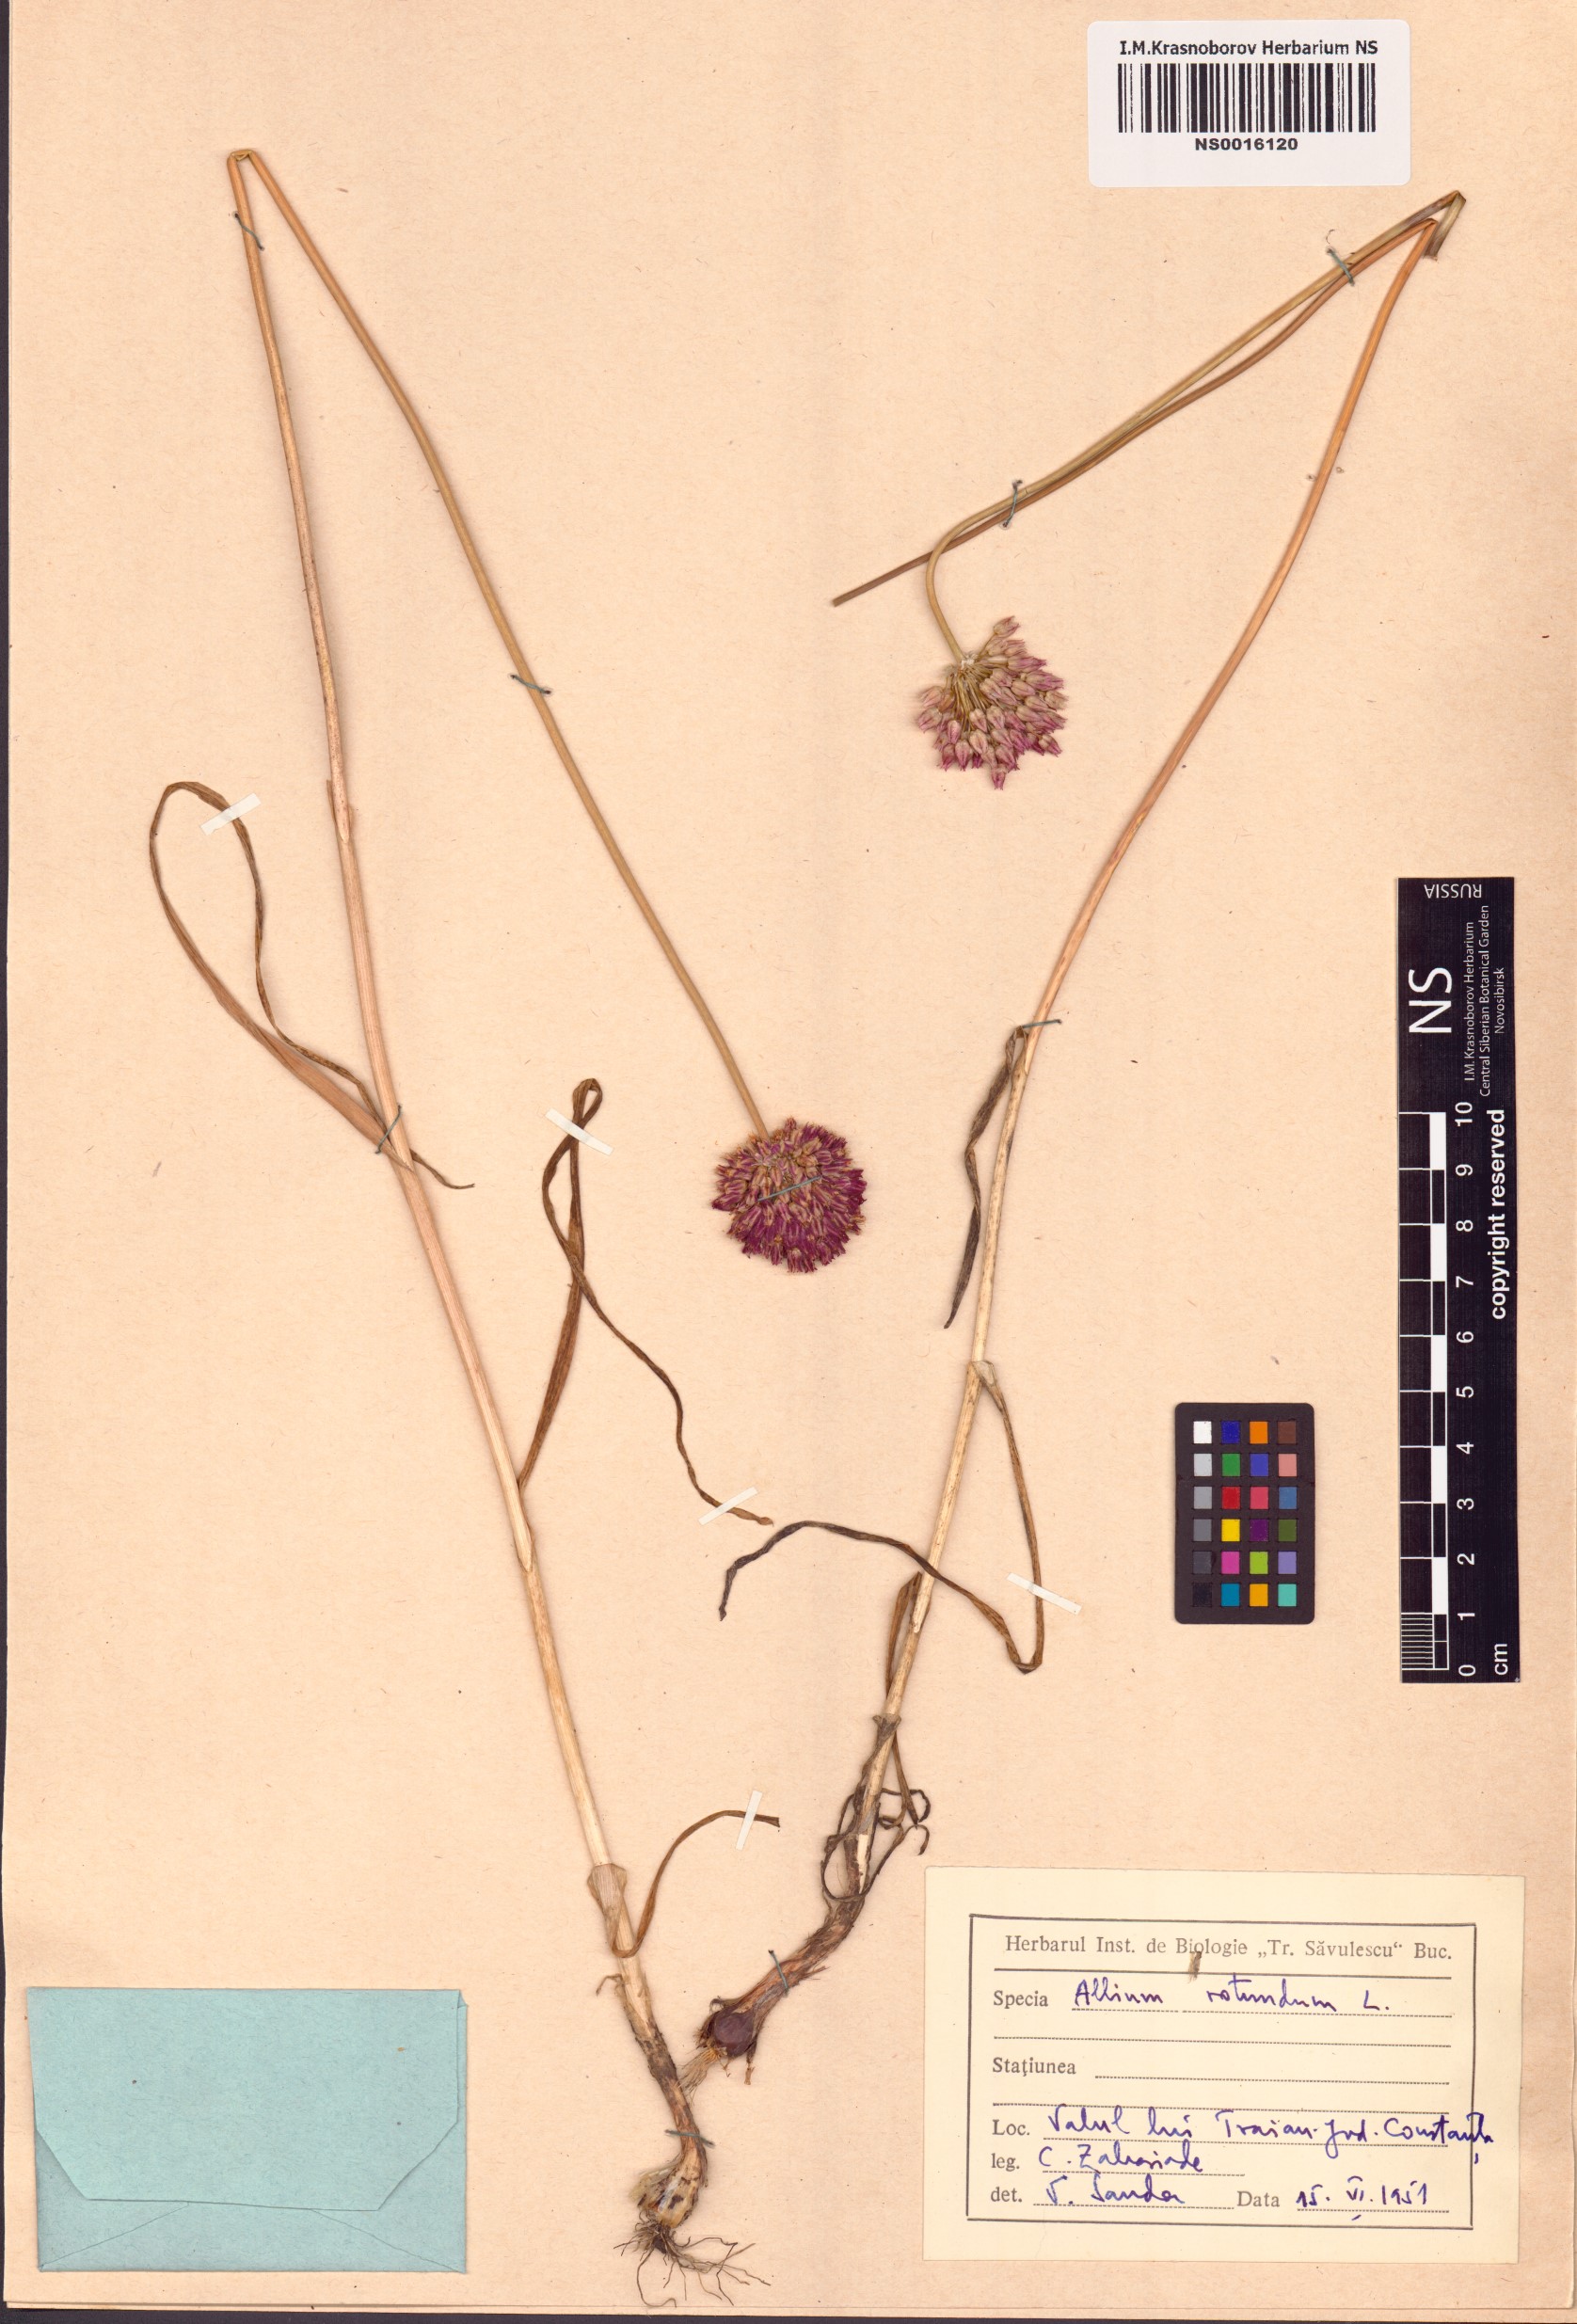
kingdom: Plantae
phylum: Tracheophyta
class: Liliopsida
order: Asparagales
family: Amaryllidaceae
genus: Allium
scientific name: Allium rotundum
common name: Sand leek
